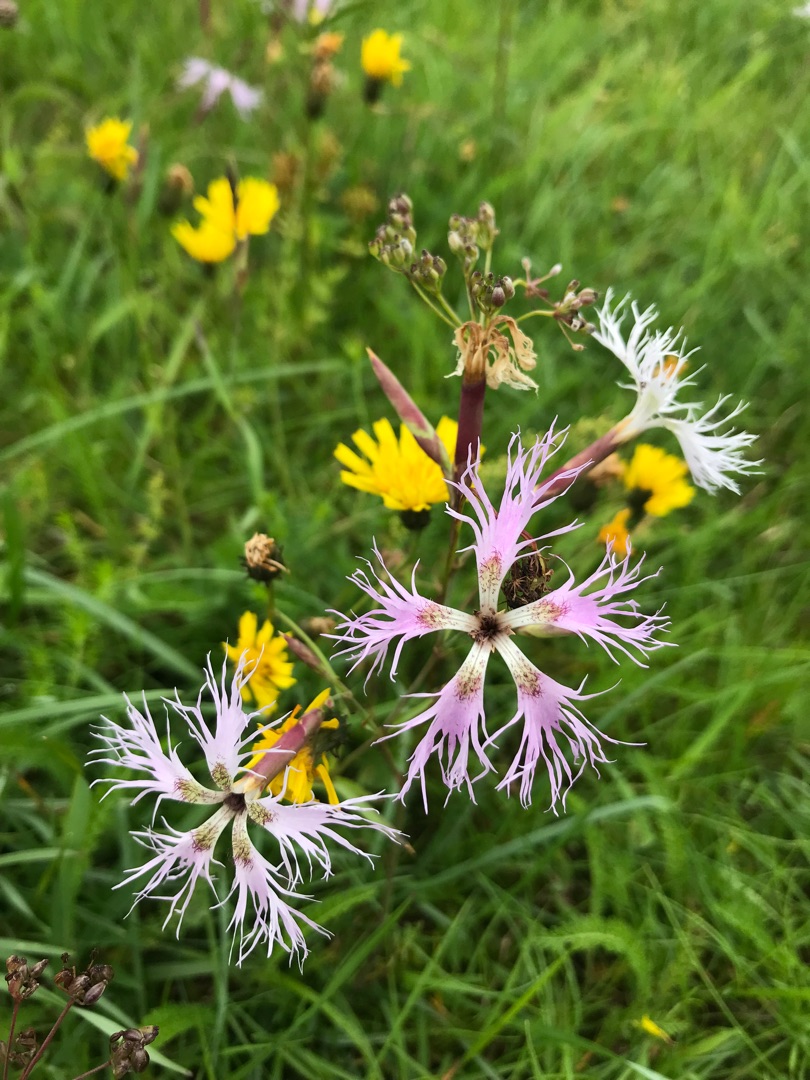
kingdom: Plantae
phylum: Tracheophyta
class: Magnoliopsida
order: Caryophyllales
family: Caryophyllaceae
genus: Dianthus
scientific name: Dianthus superbus
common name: Strand-nellike
